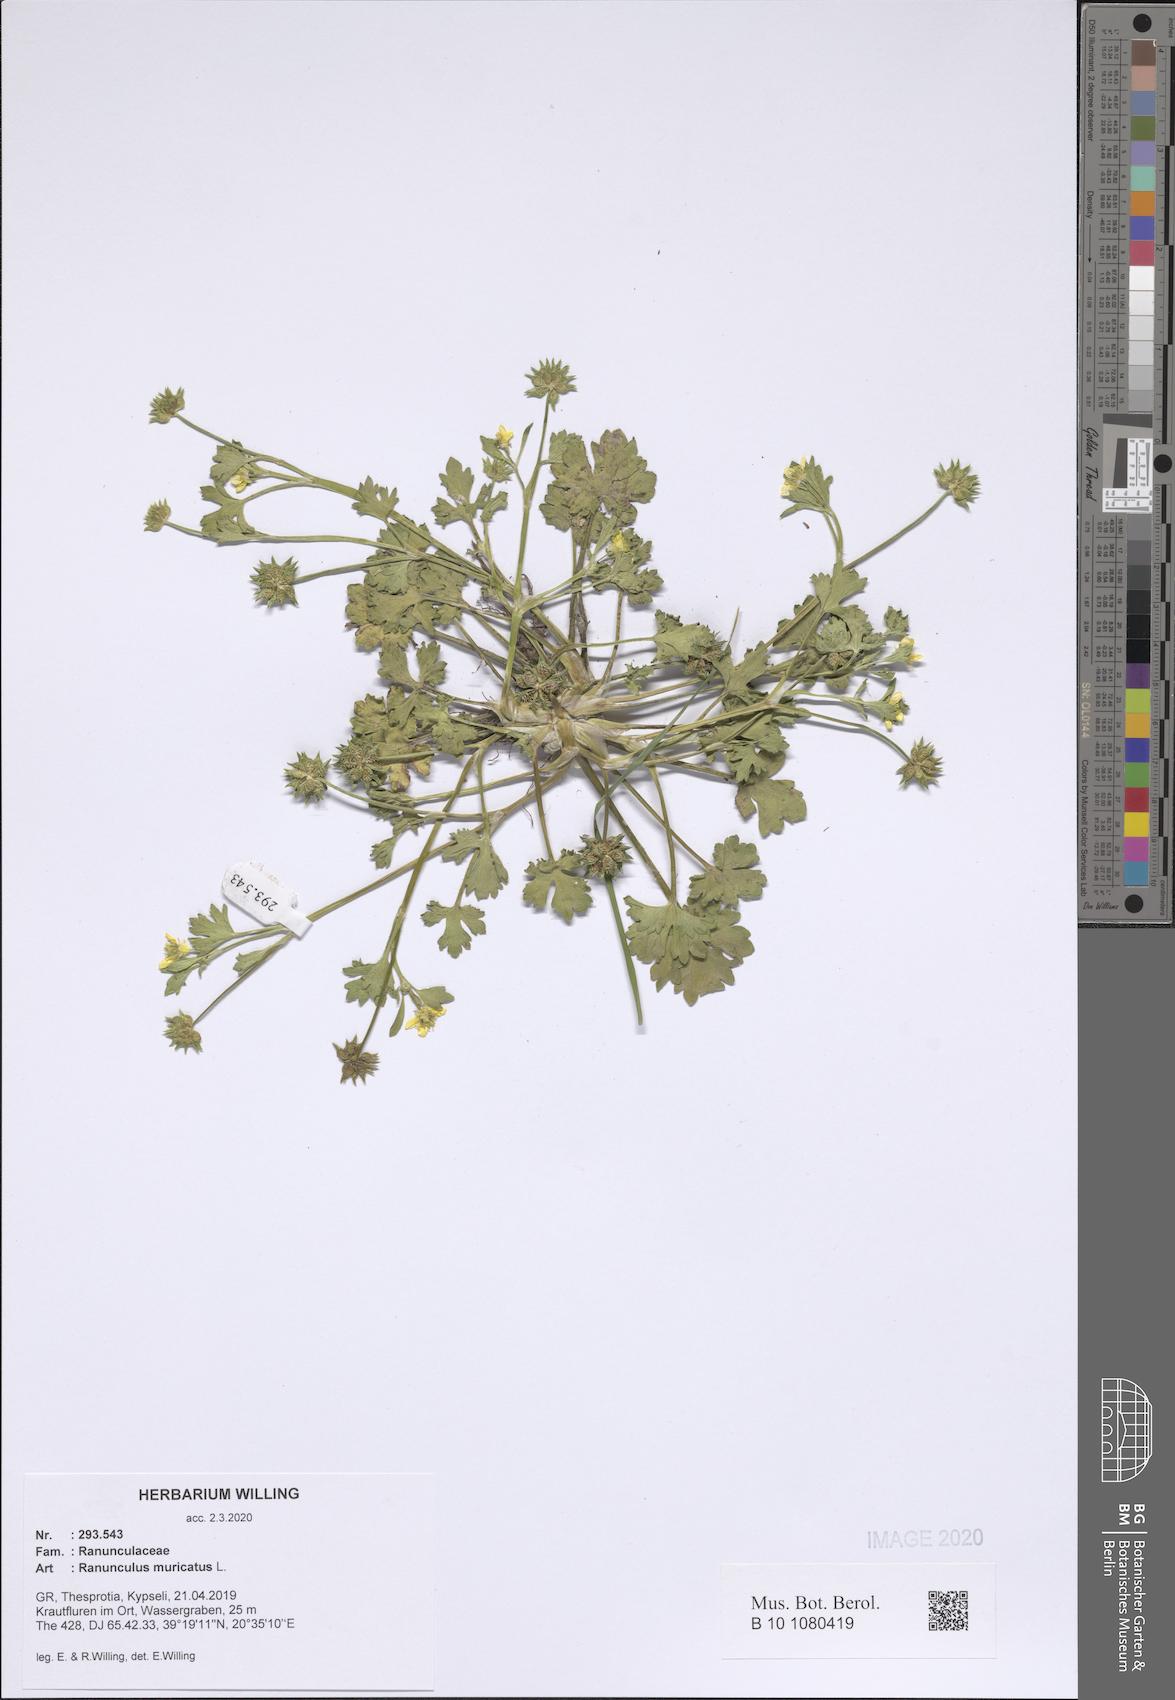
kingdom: Plantae
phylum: Tracheophyta
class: Magnoliopsida
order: Ranunculales
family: Ranunculaceae
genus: Ranunculus
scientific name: Ranunculus muricatus
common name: Rough-fruited buttercup
